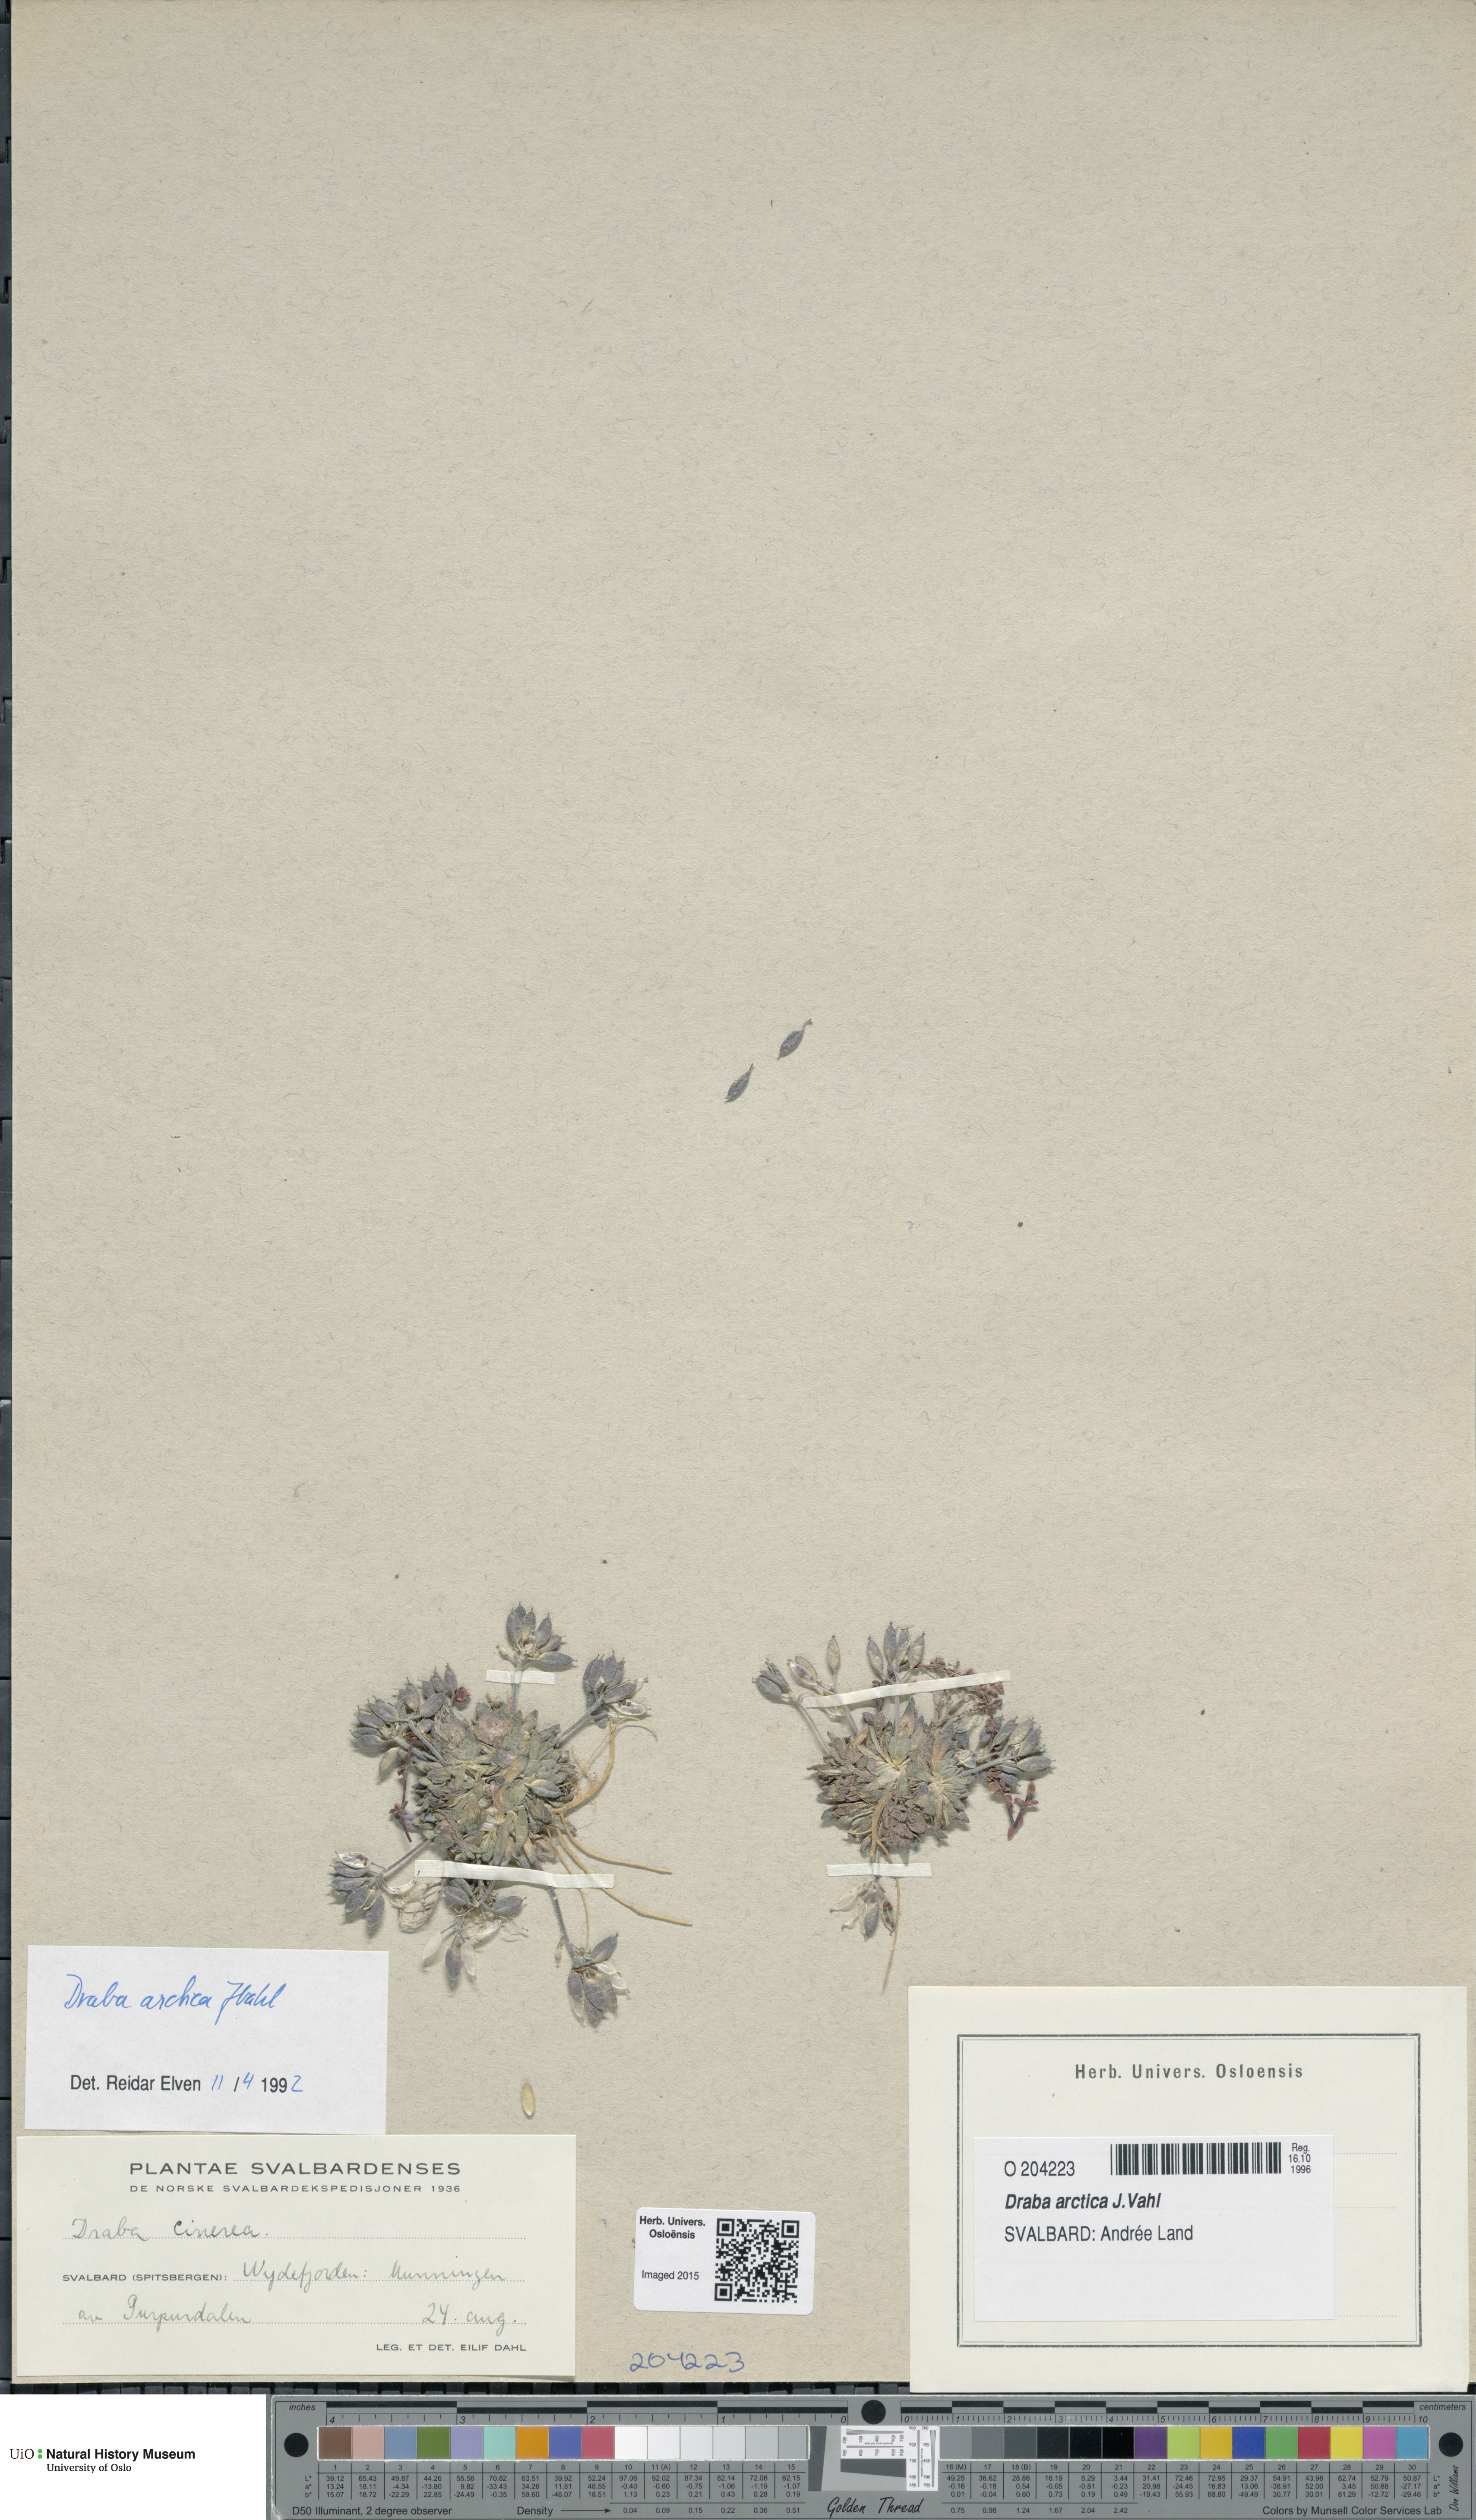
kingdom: Plantae
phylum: Tracheophyta
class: Magnoliopsida
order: Brassicales
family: Brassicaceae
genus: Draba
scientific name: Draba arctica
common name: Arctic draba
